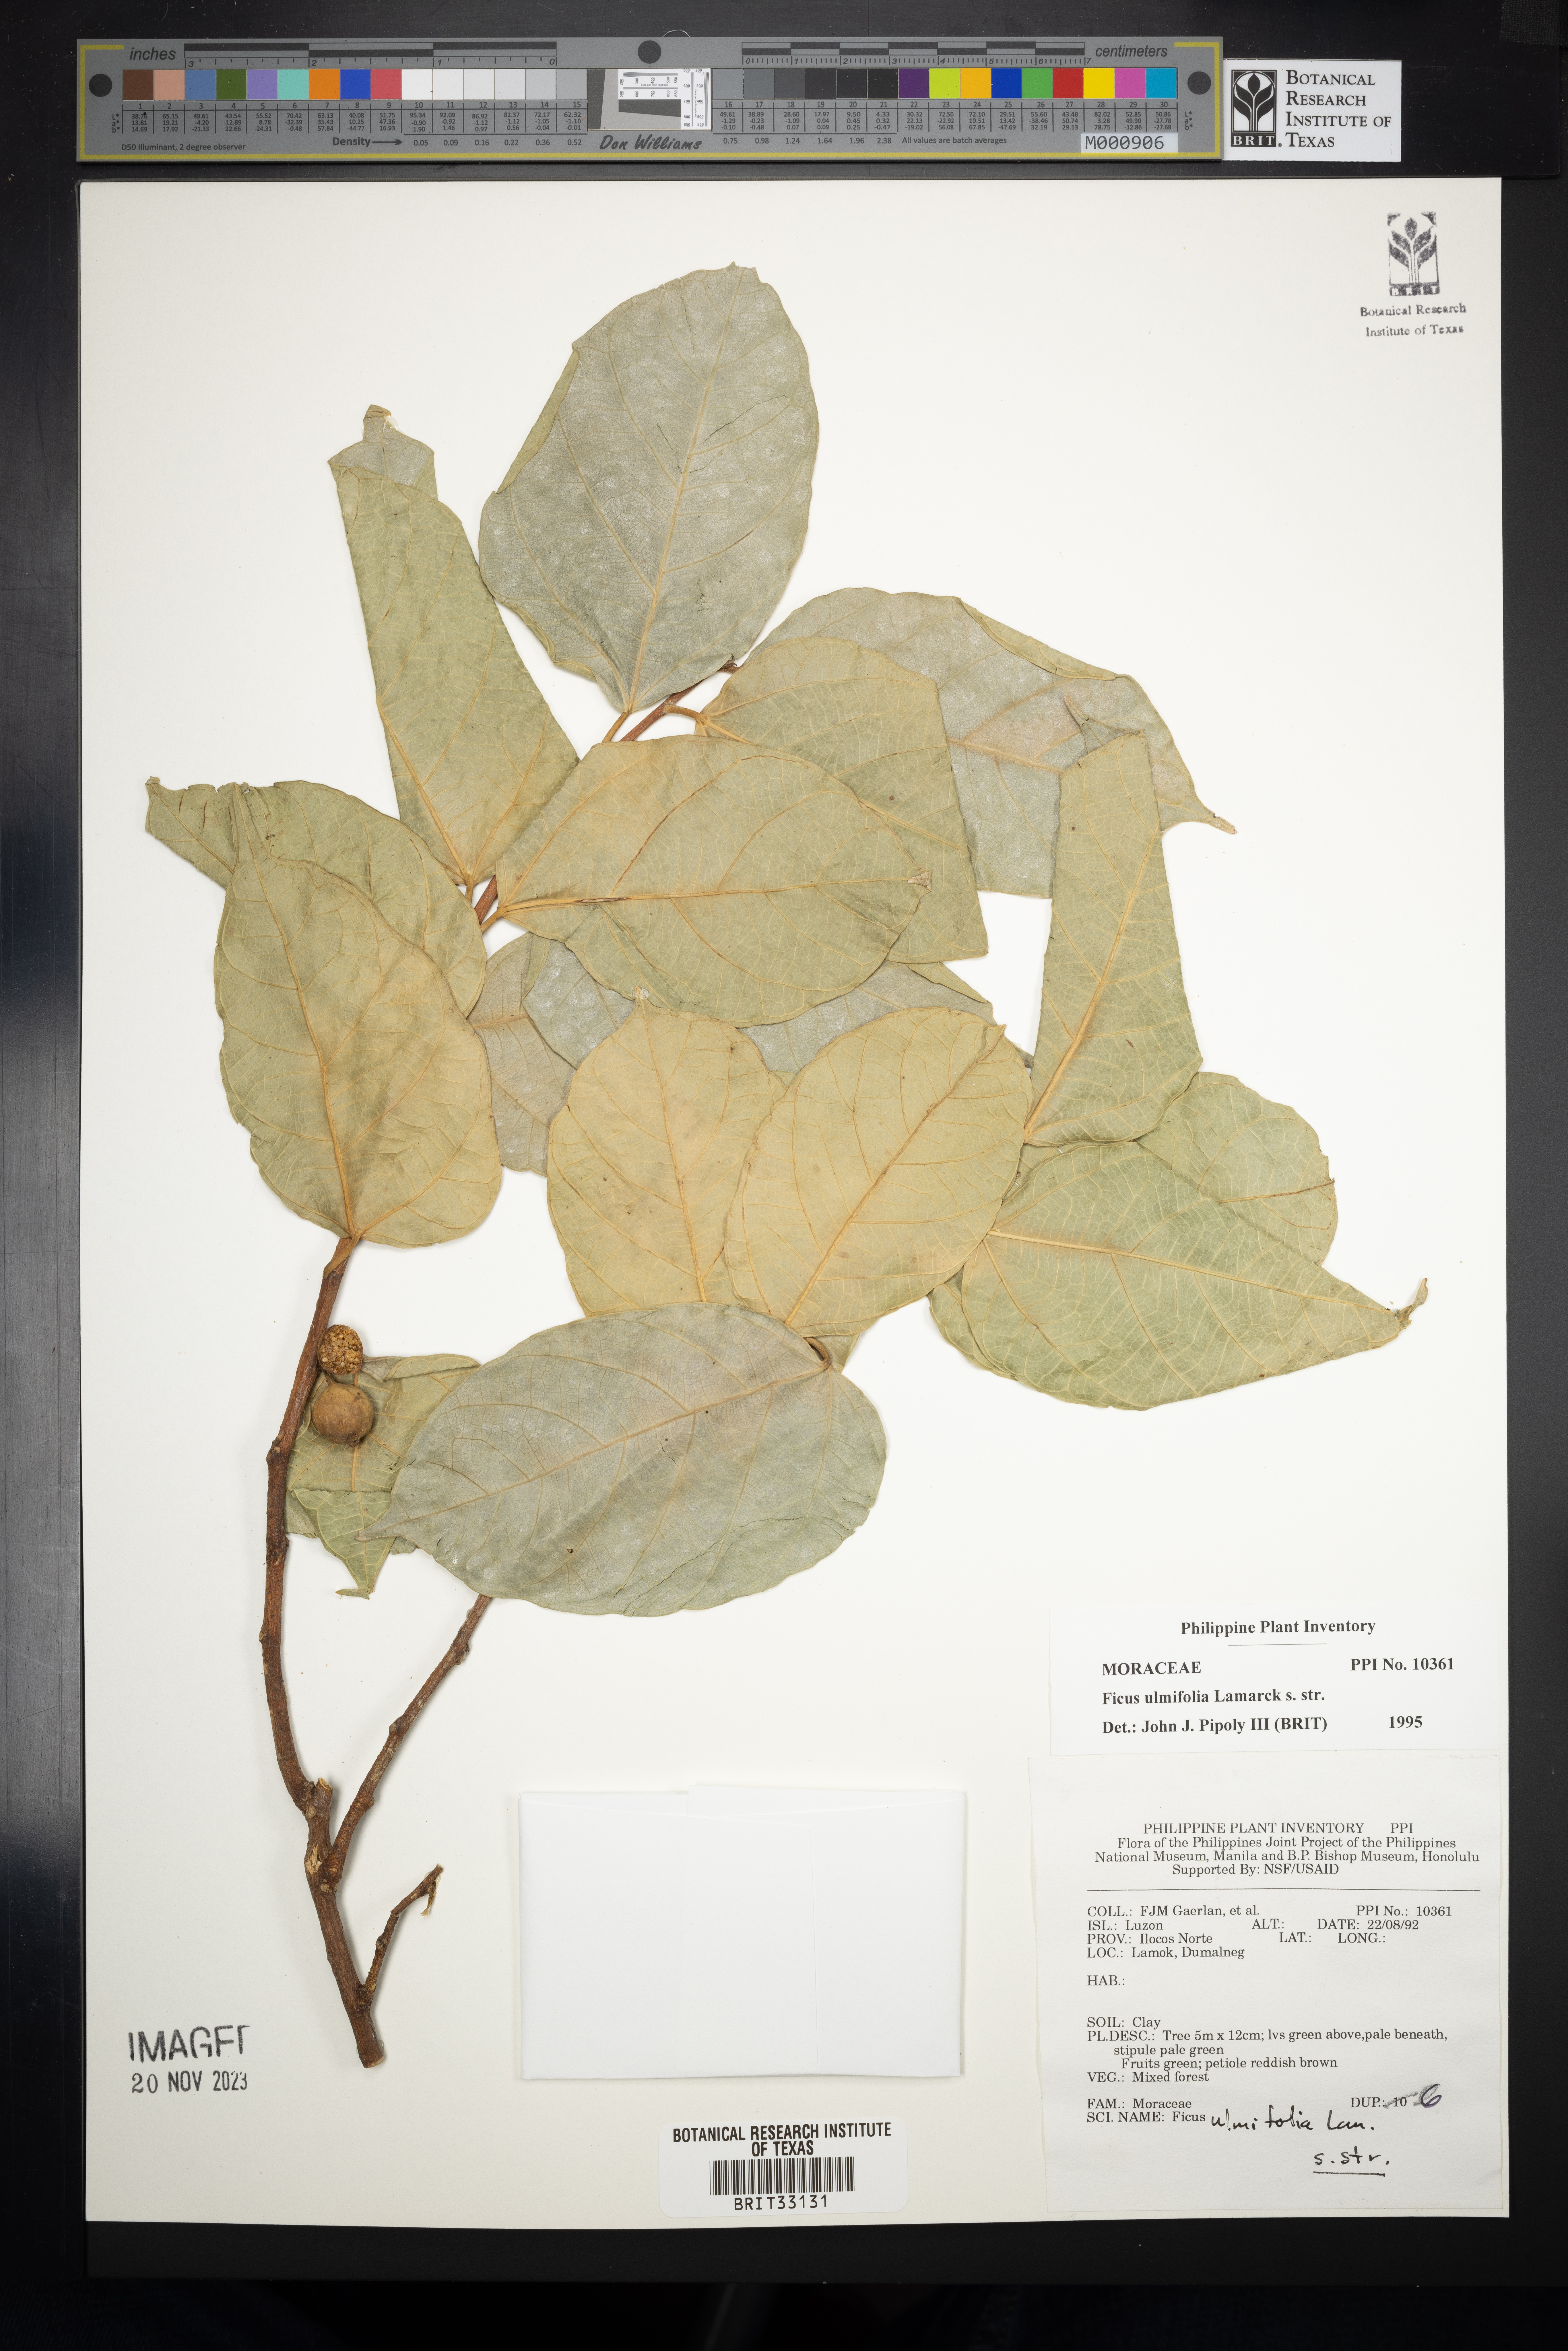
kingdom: Plantae
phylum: Tracheophyta
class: Magnoliopsida
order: Rosales
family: Moraceae
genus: Ficus
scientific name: Ficus ulmifolia
